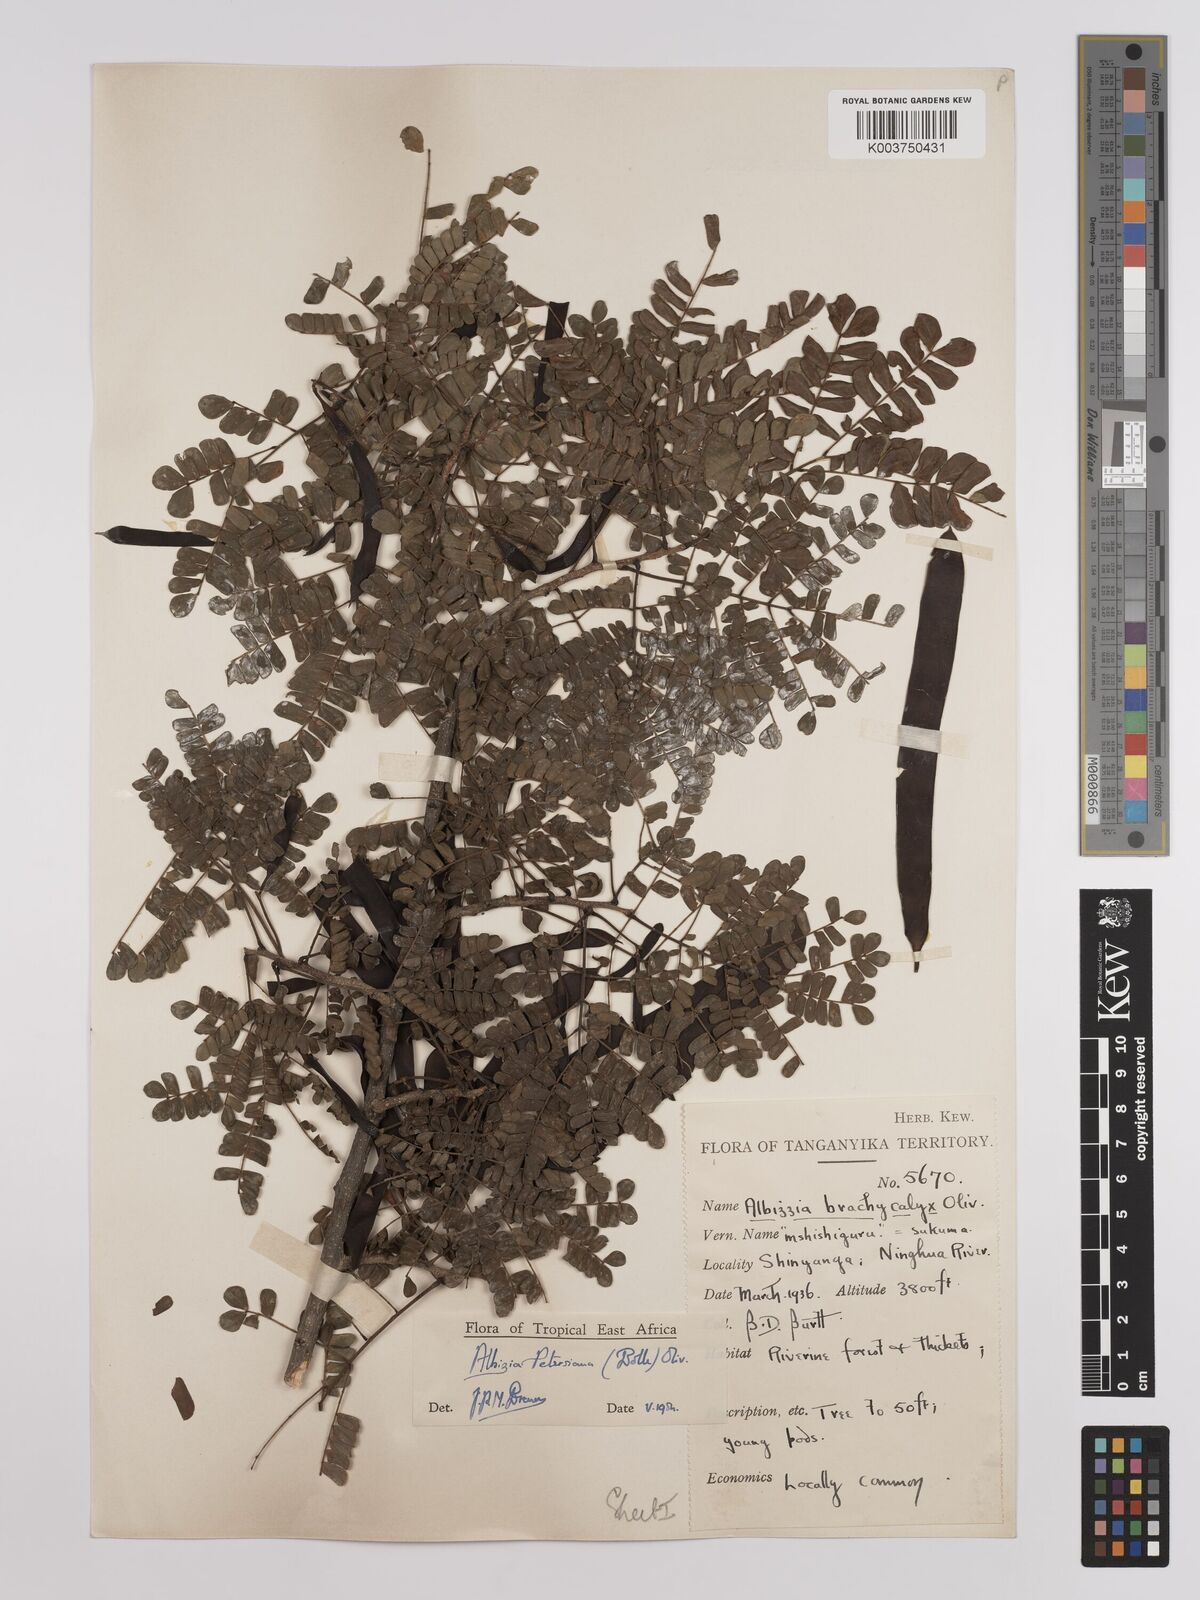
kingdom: Plantae
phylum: Tracheophyta
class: Magnoliopsida
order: Fabales
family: Fabaceae
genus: Albizia
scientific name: Albizia petersiana
